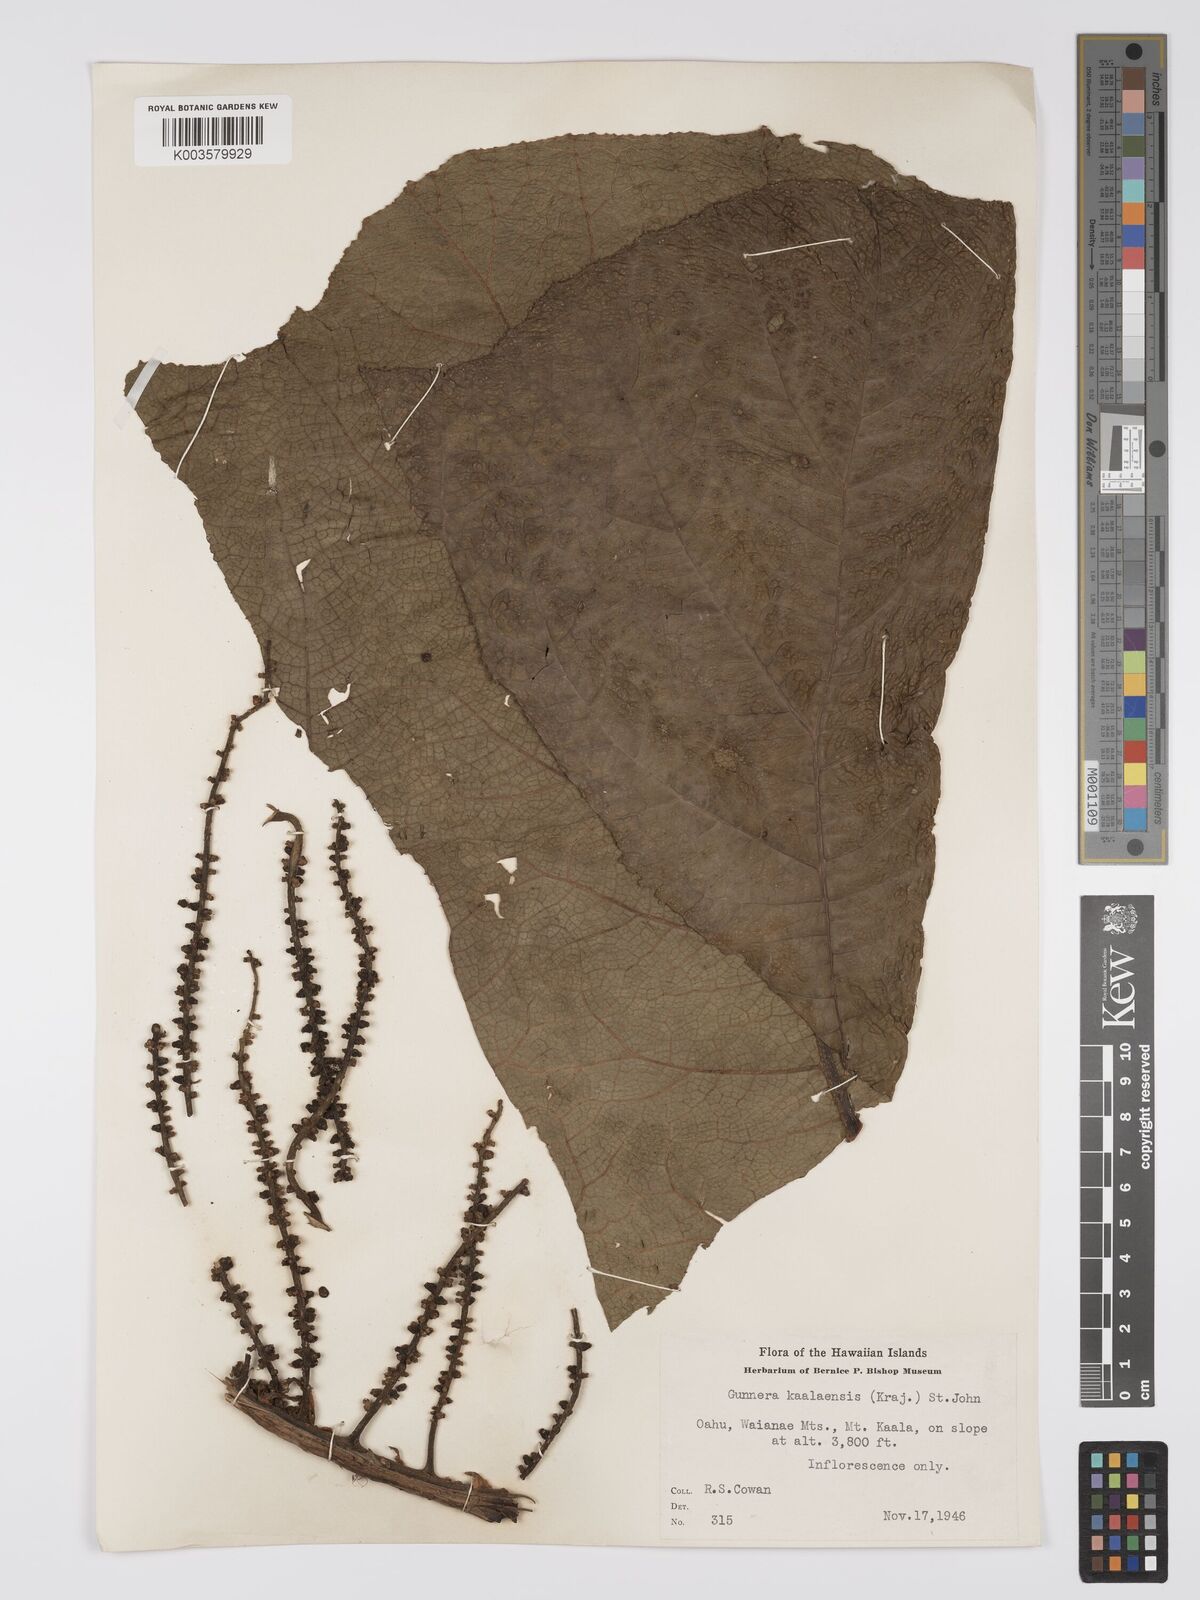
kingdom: Plantae
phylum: Tracheophyta
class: Magnoliopsida
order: Gunnerales
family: Gunneraceae
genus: Gunnera
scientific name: Gunnera petaloidea
